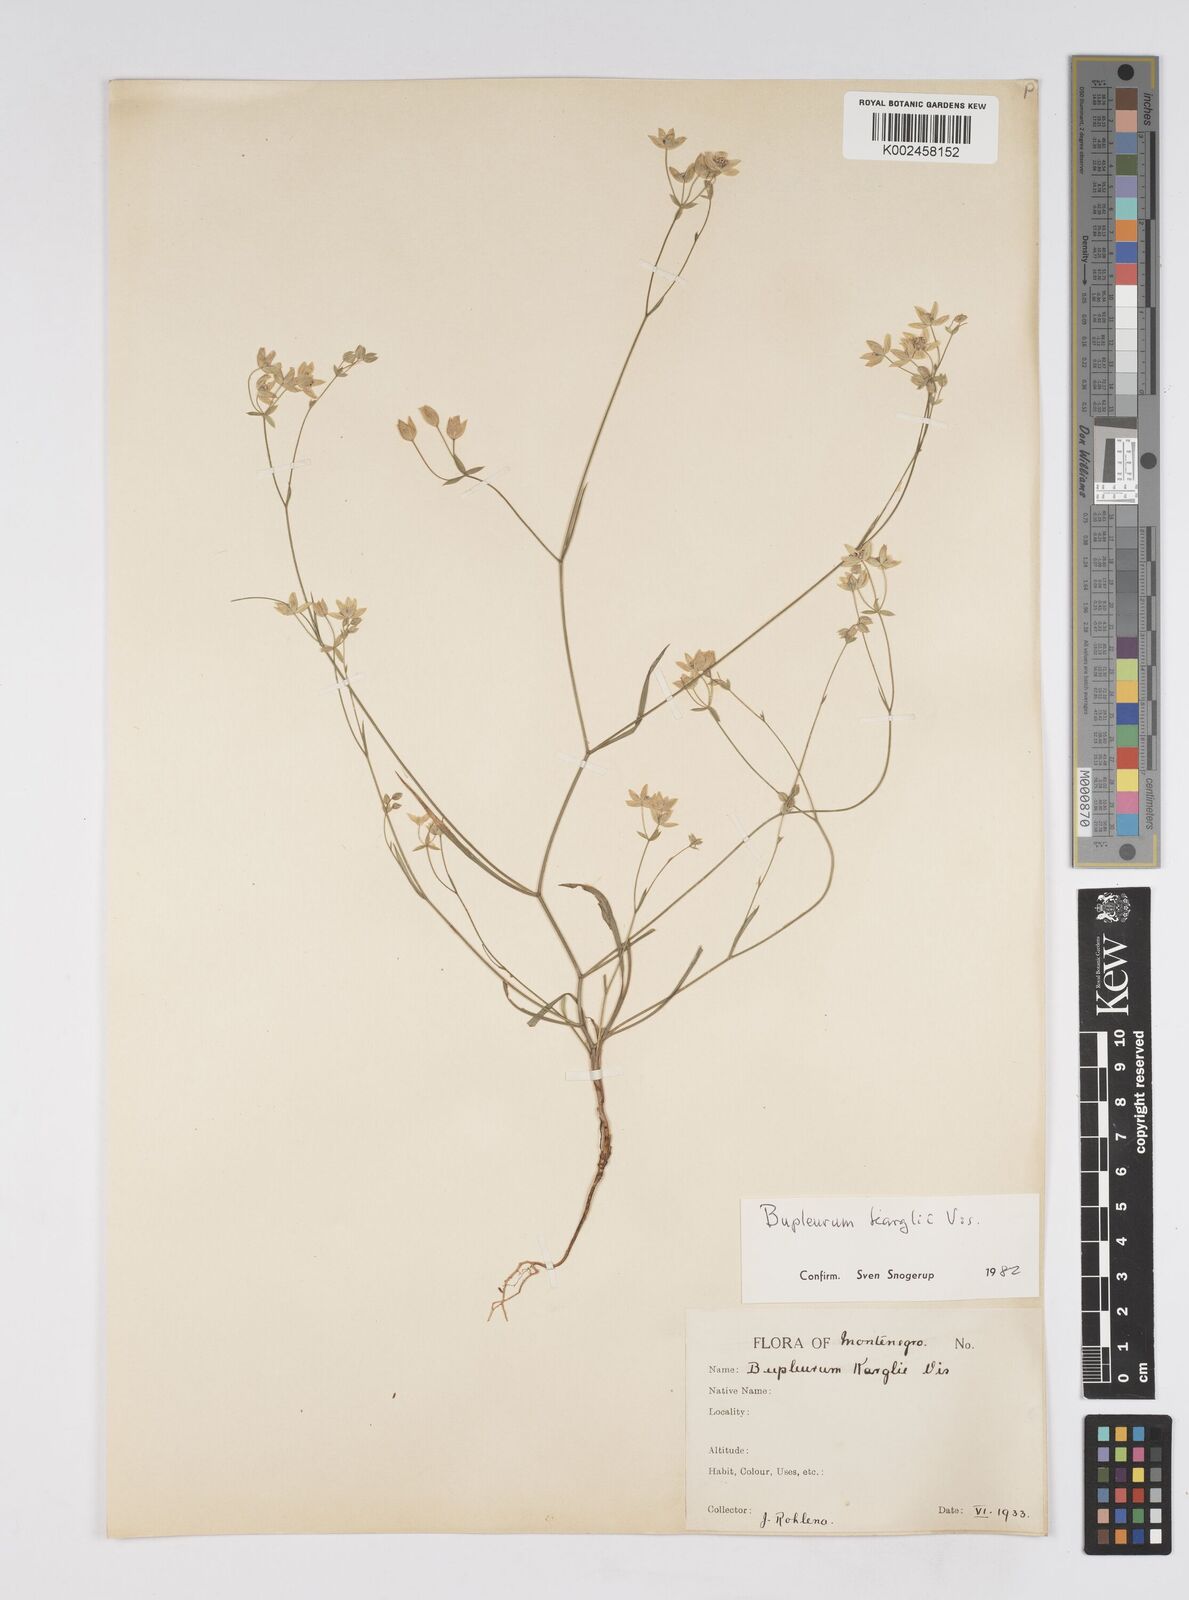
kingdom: Plantae
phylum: Tracheophyta
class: Magnoliopsida
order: Apiales
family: Apiaceae
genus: Bupleurum
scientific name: Bupleurum karglii
